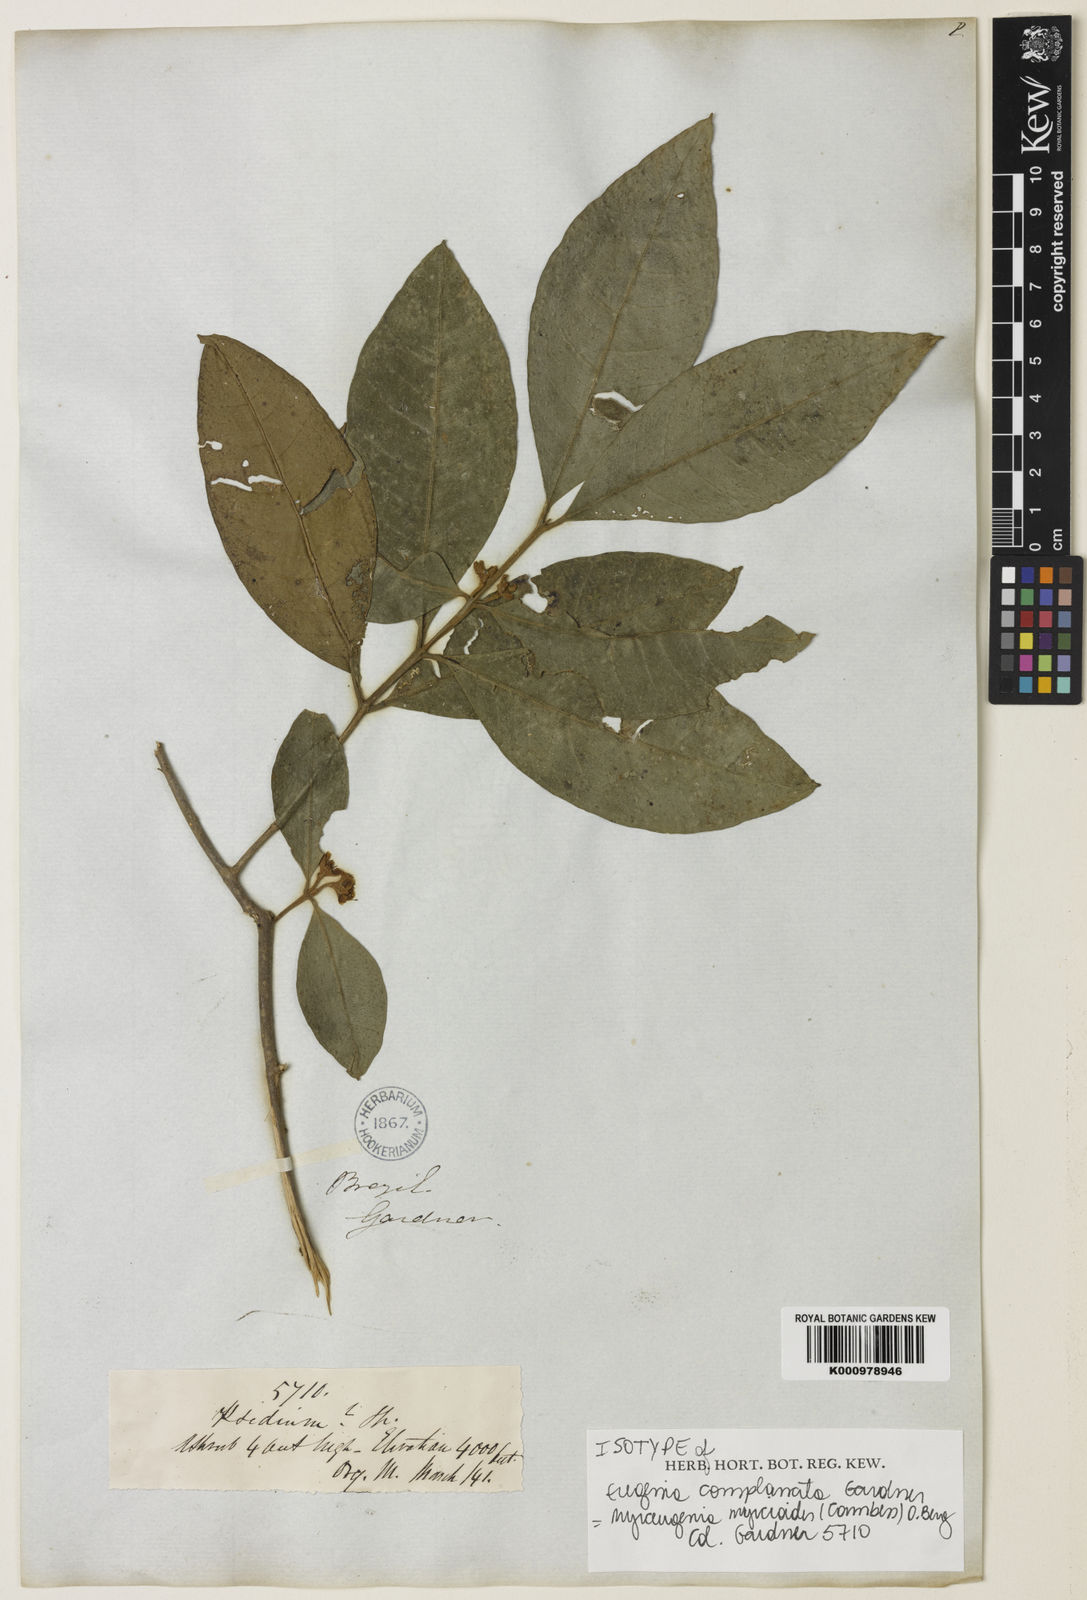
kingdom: Plantae
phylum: Tracheophyta
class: Magnoliopsida
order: Myrtales
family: Myrtaceae
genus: Myrceugenia
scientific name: Myrceugenia myrcioides
